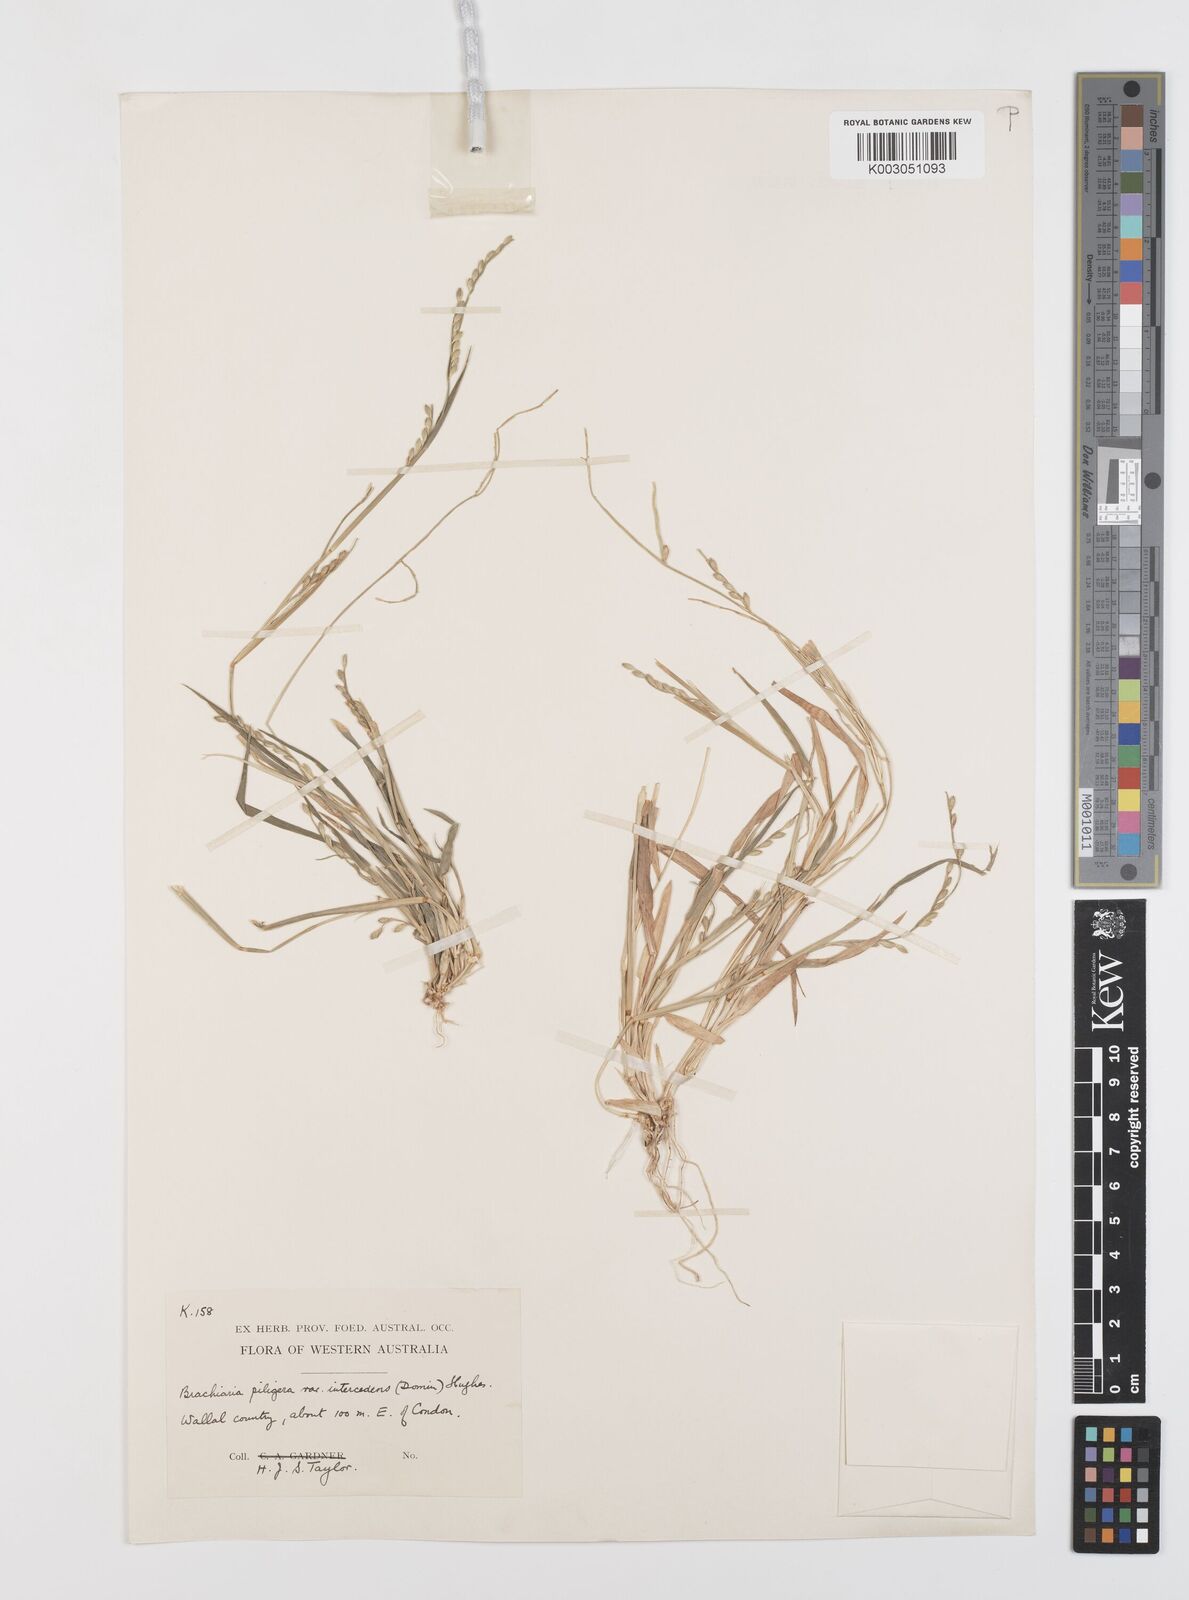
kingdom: Plantae
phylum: Tracheophyta
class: Liliopsida
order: Poales
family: Poaceae
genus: Urochloa
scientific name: Urochloa piligera
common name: Wattle signalgrass
